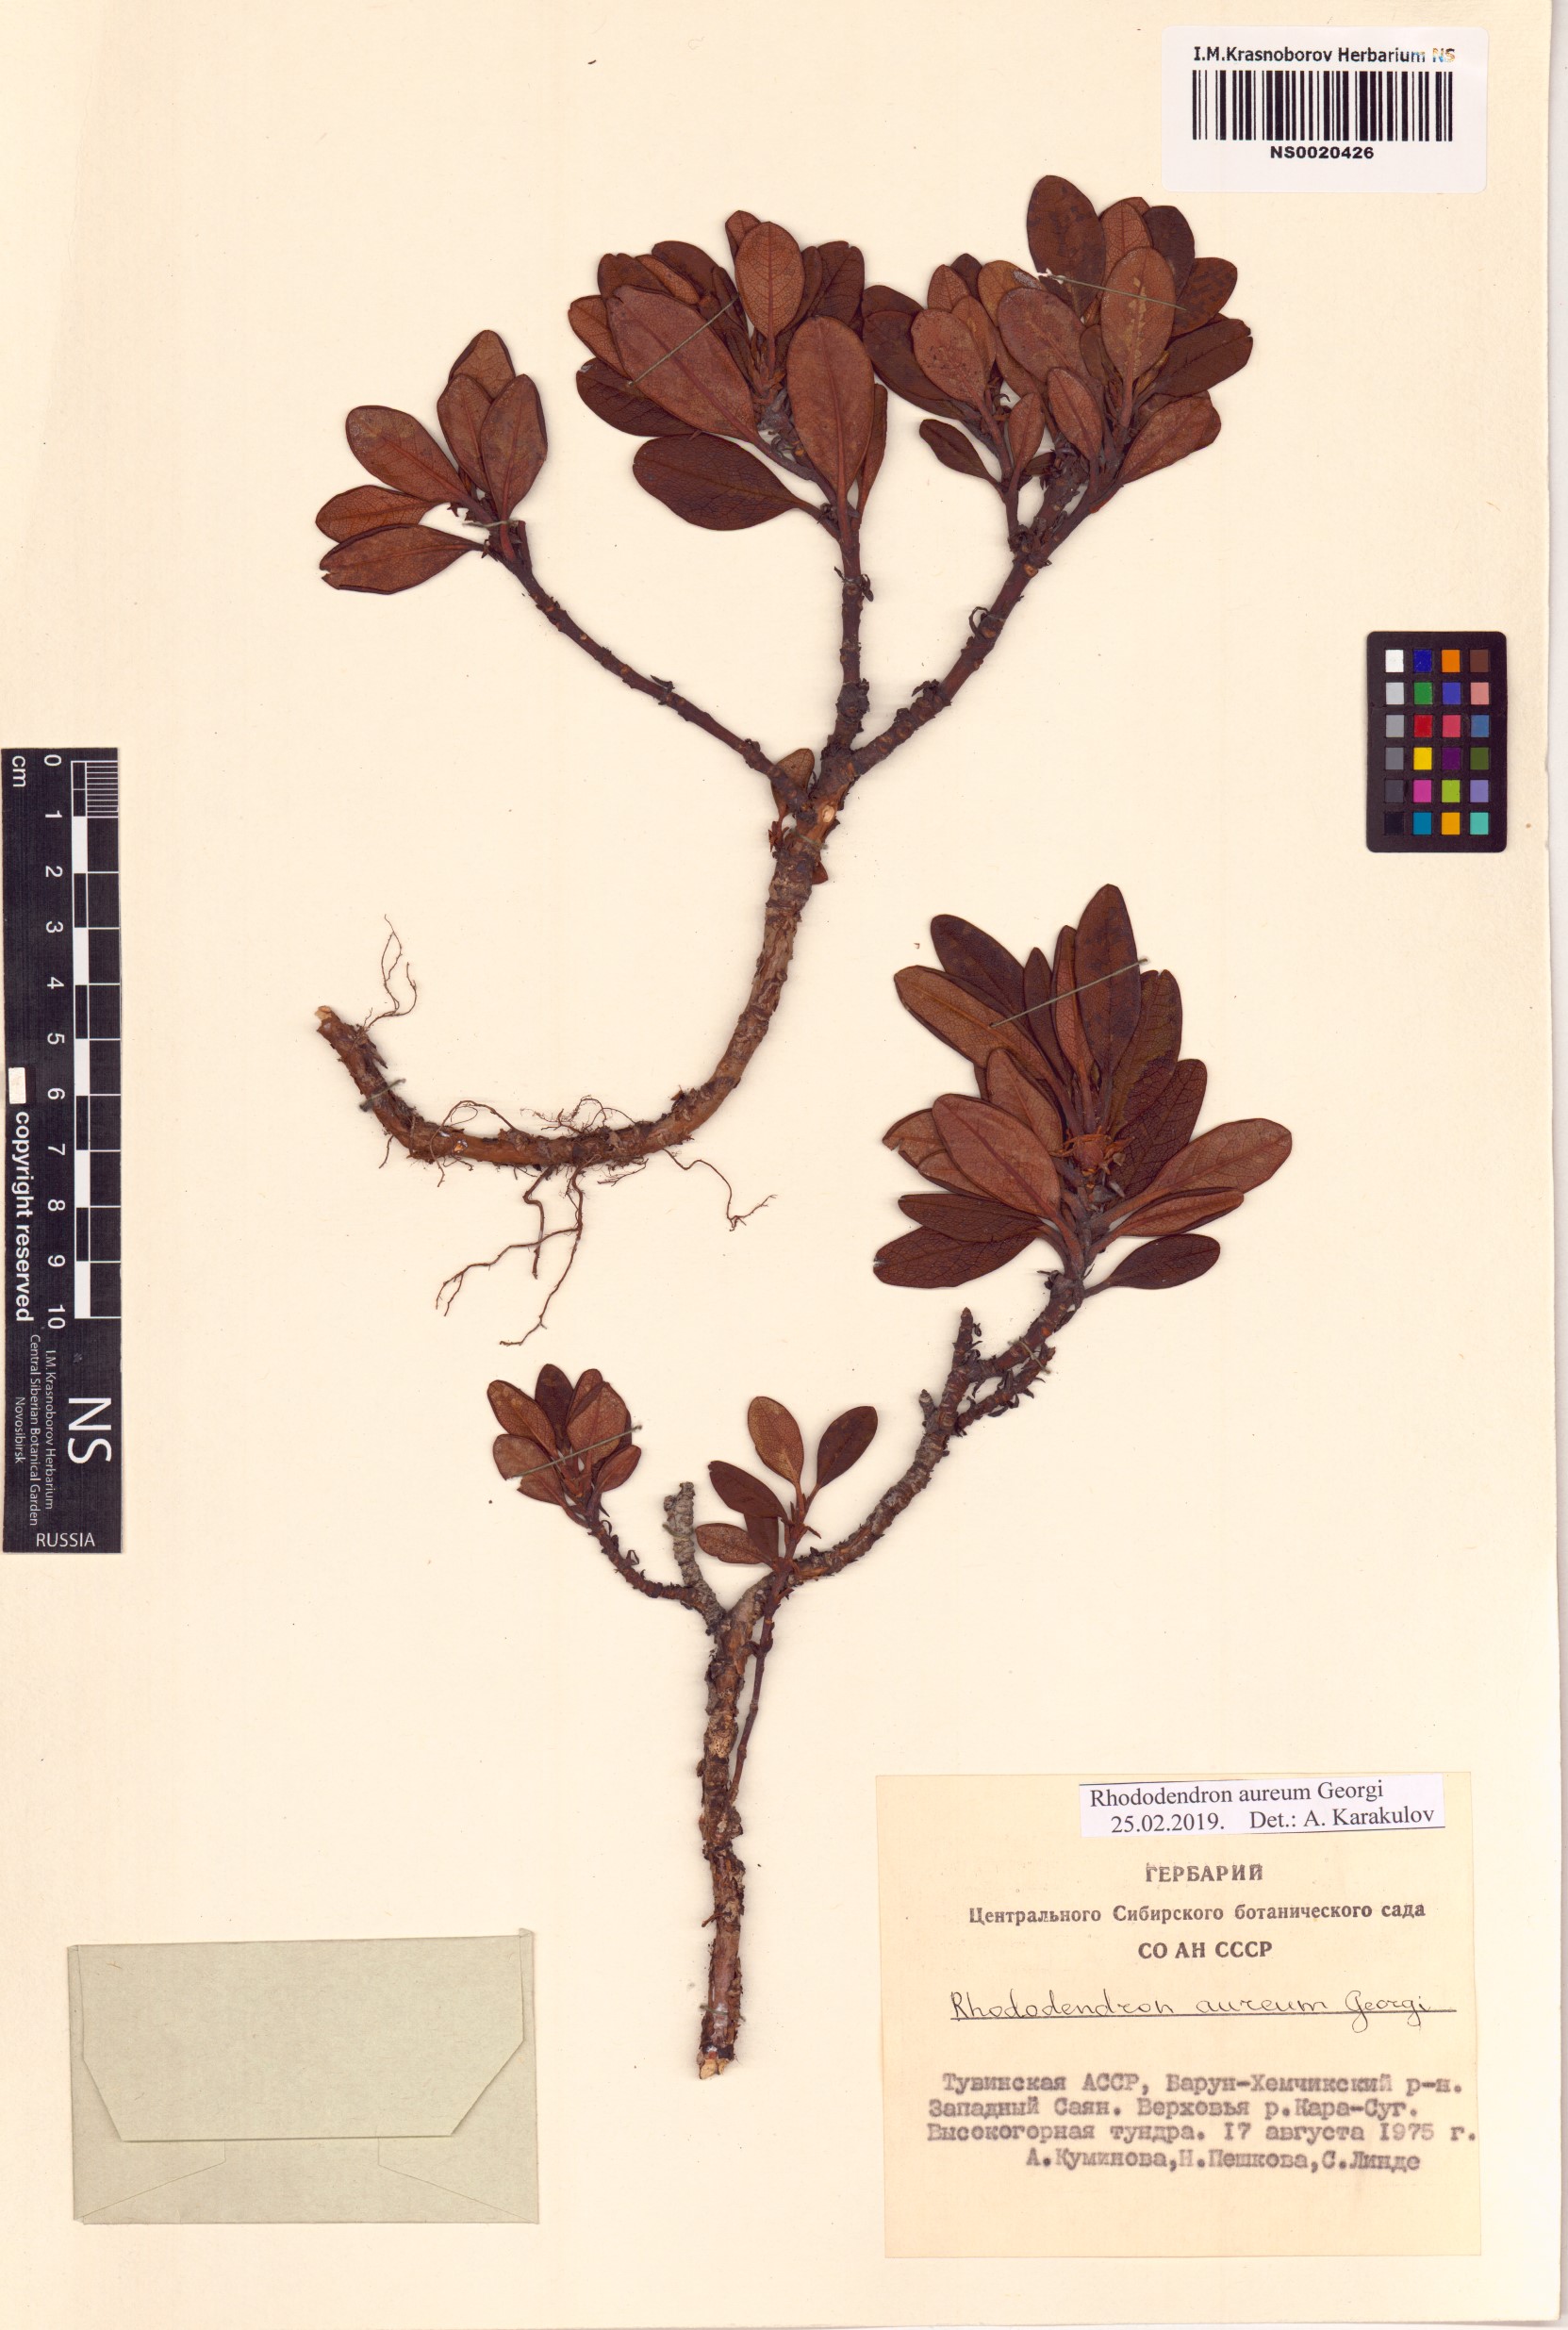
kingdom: Plantae
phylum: Tracheophyta
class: Magnoliopsida
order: Ericales
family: Ericaceae
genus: Rhododendron
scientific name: Rhododendron aureum
